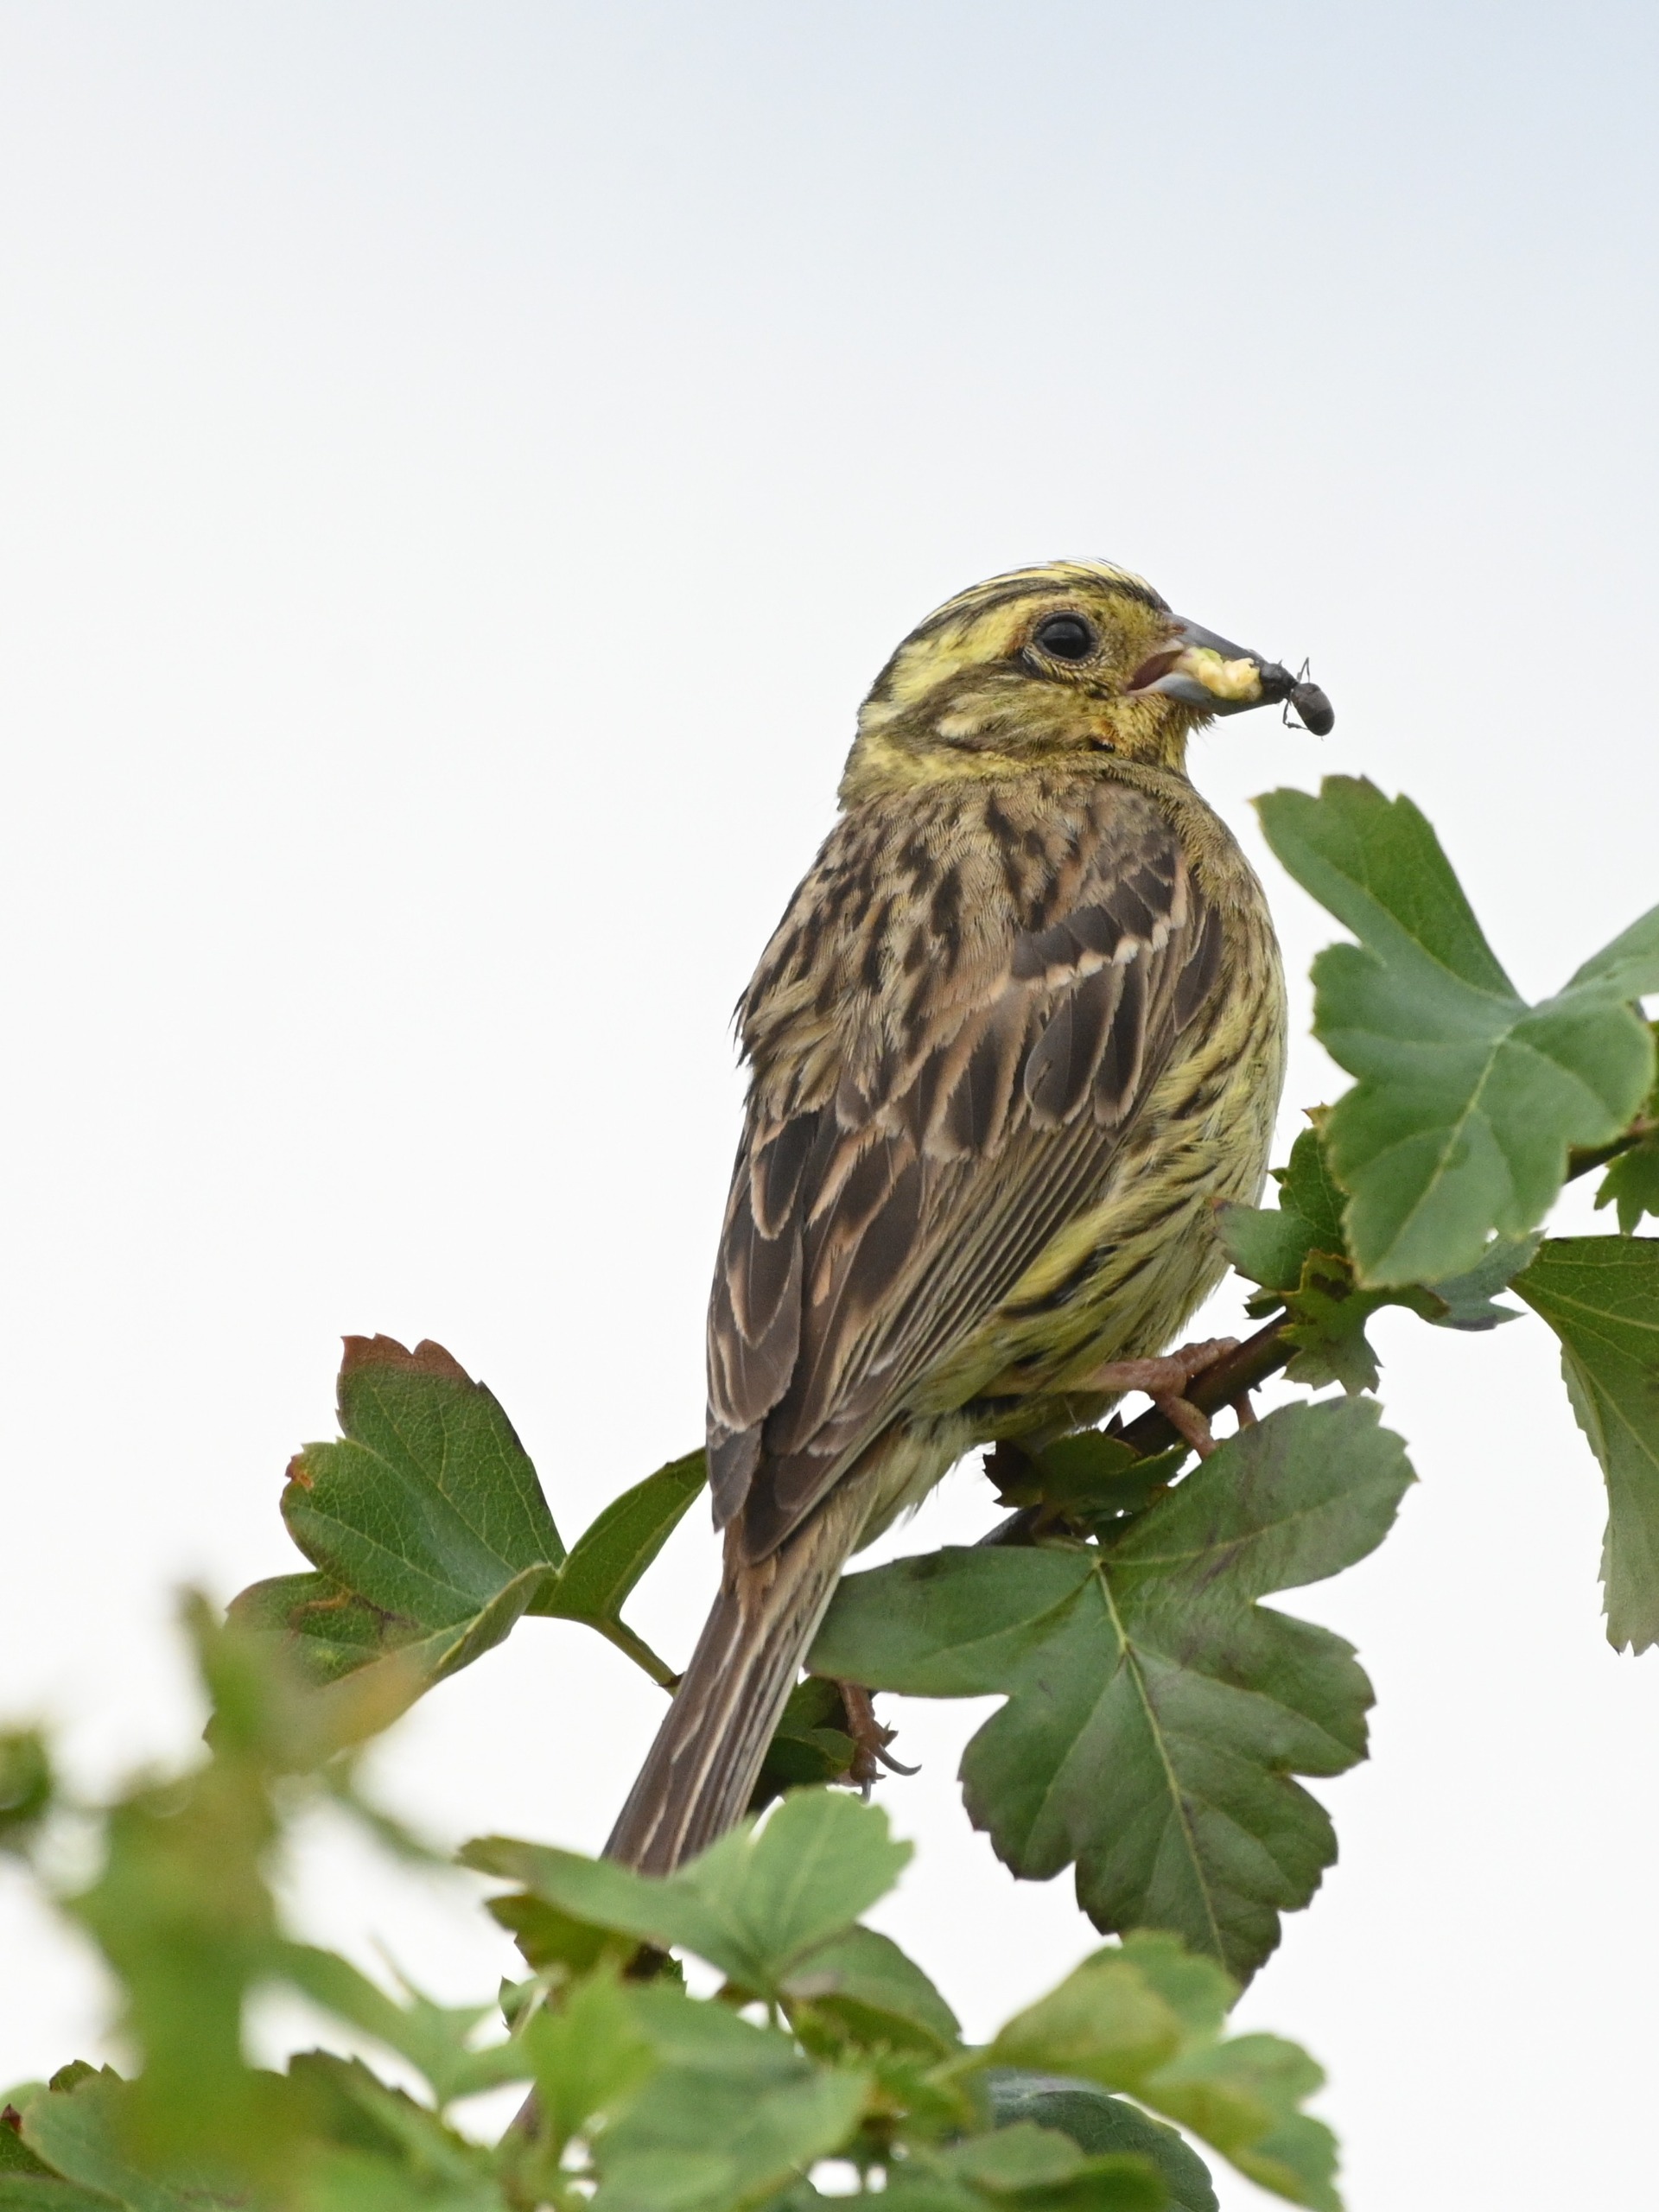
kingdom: Animalia
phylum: Chordata
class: Aves
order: Passeriformes
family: Emberizidae
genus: Emberiza
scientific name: Emberiza citrinella
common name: Gulspurv
